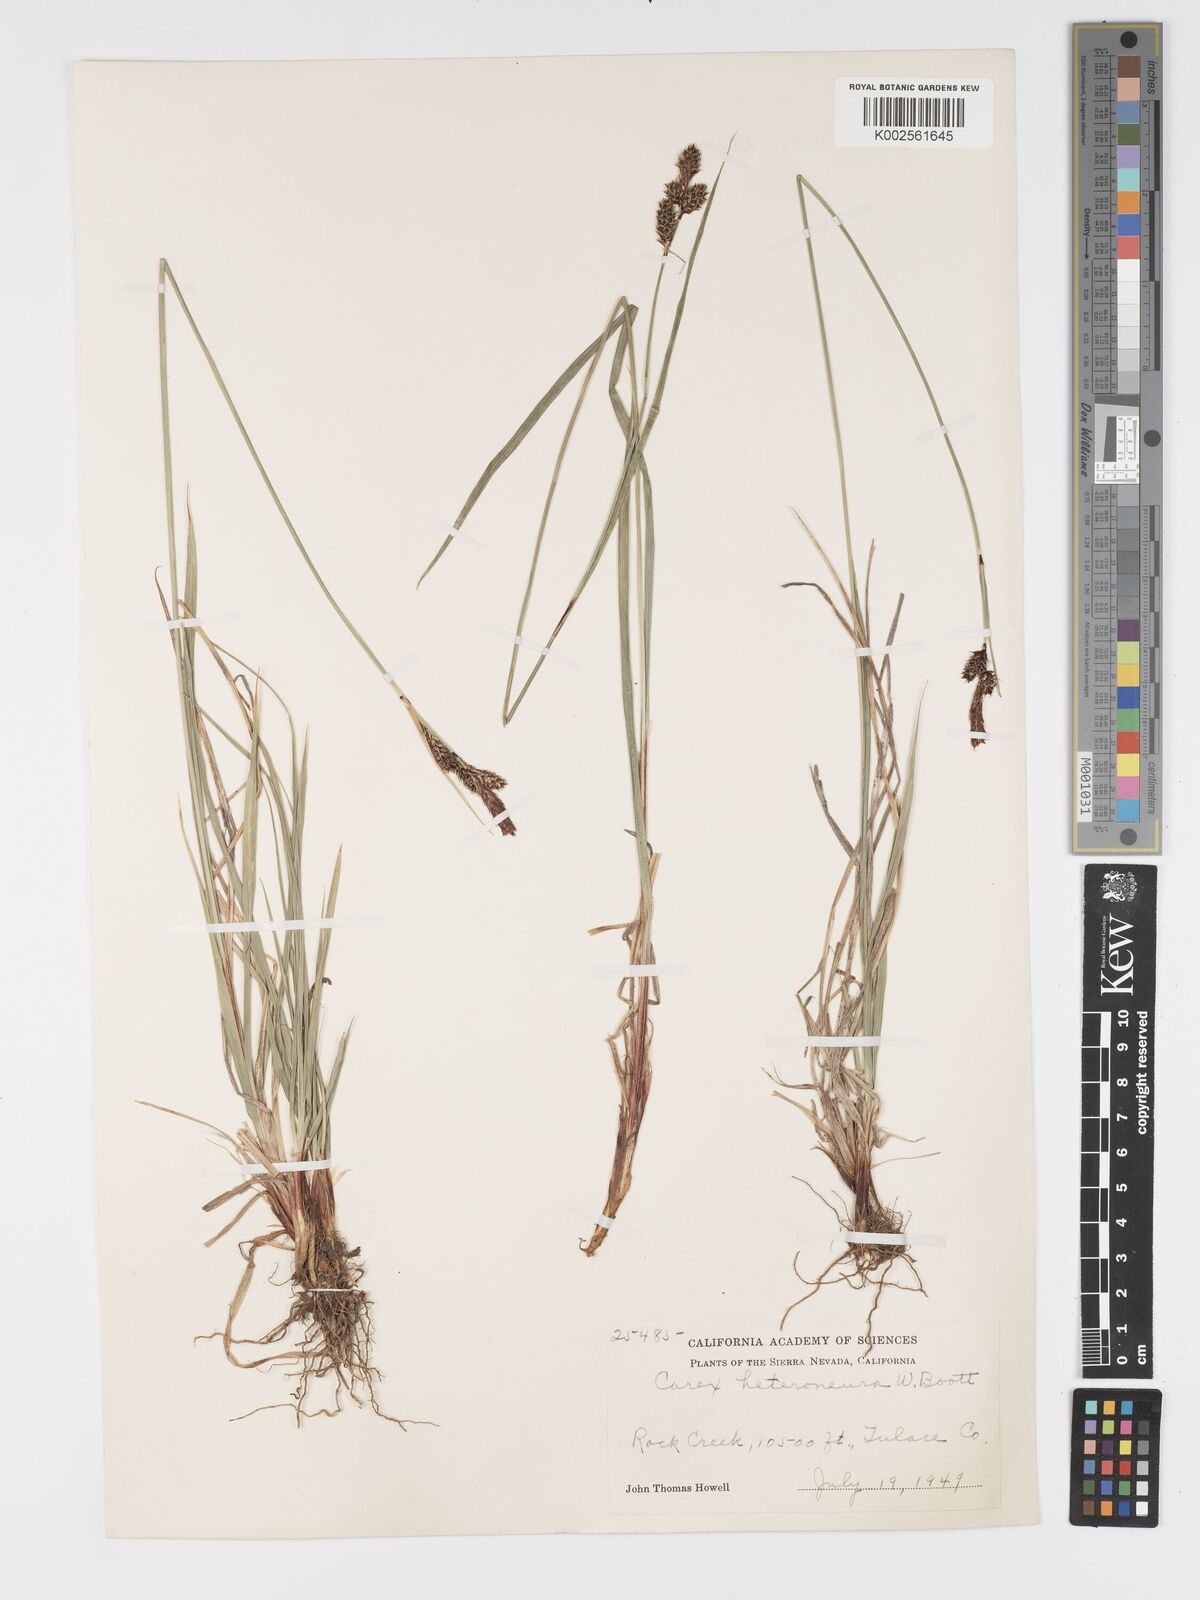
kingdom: Plantae
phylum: Tracheophyta
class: Liliopsida
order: Poales
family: Cyperaceae
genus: Carex
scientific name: Carex heteroneura
